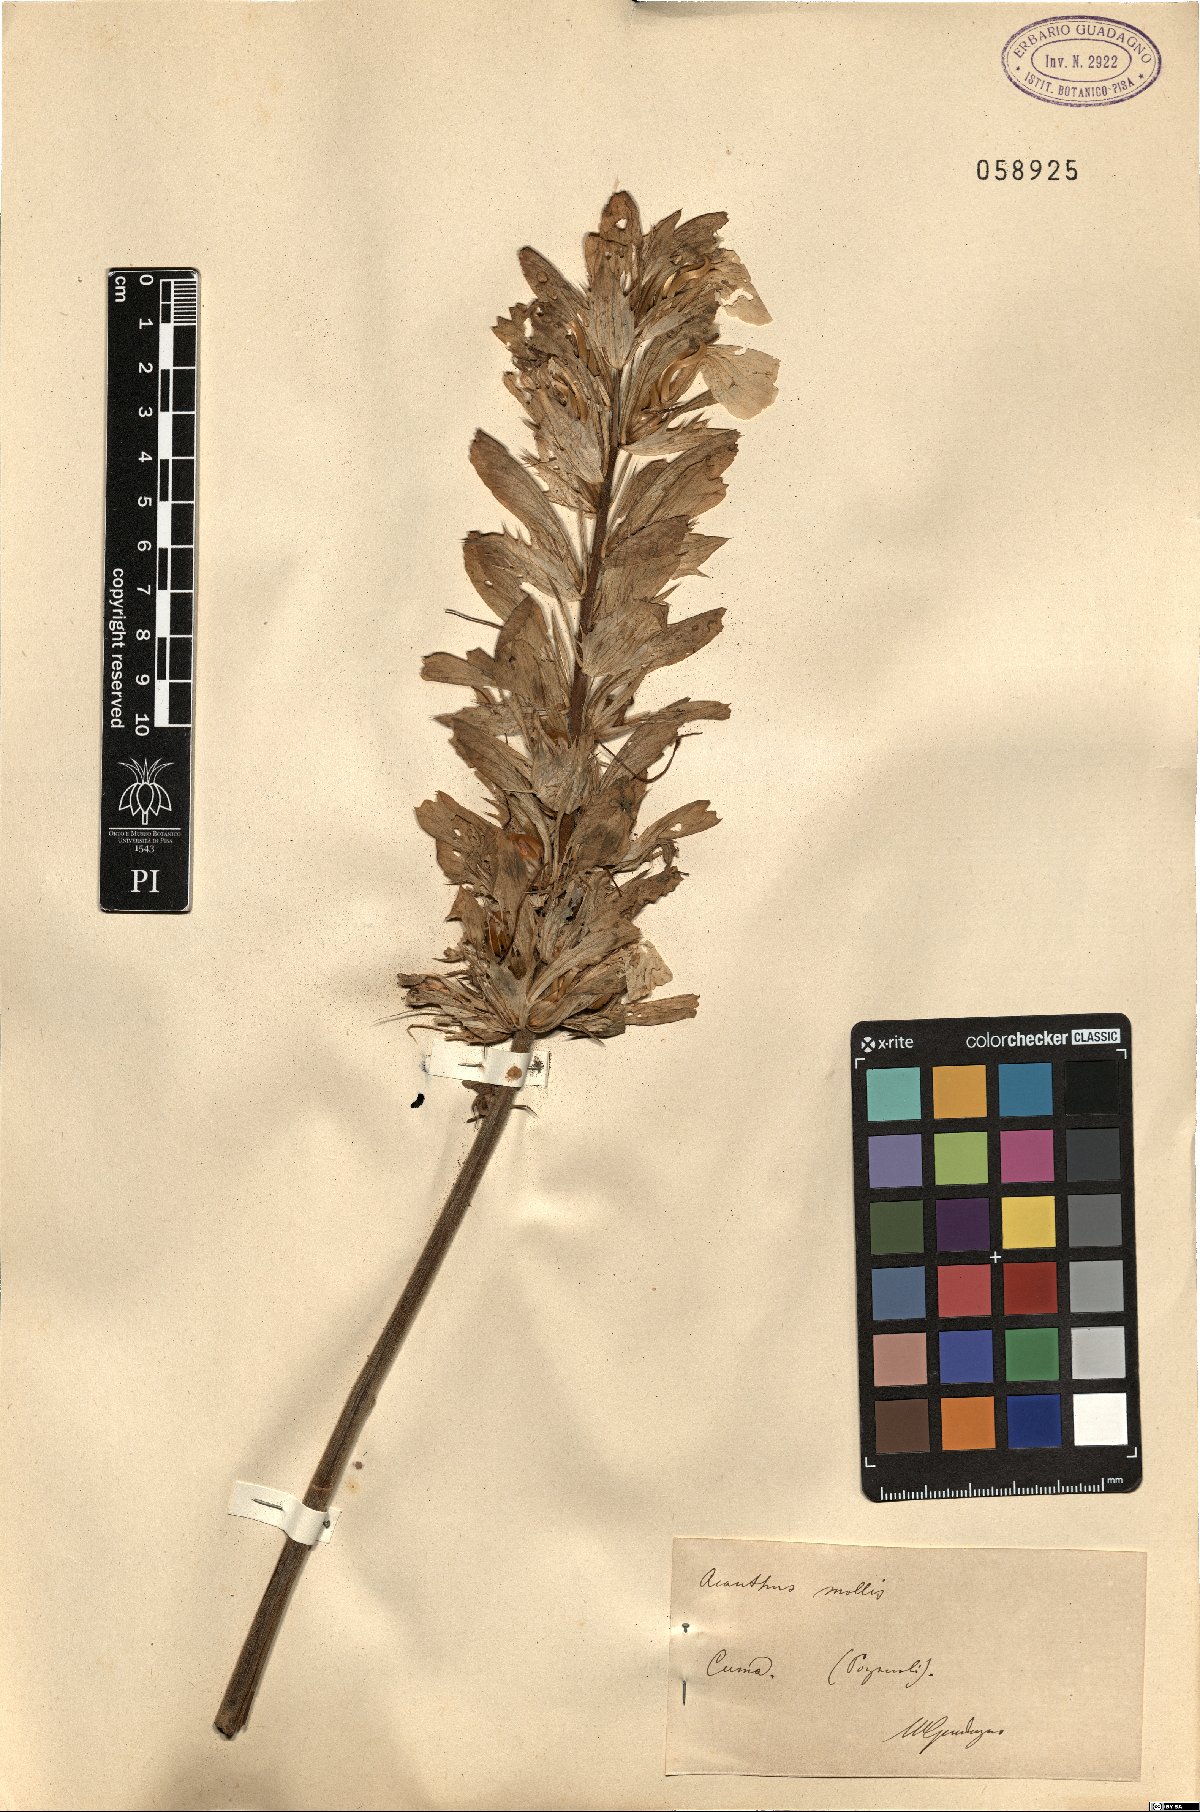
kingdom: Plantae
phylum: Tracheophyta
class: Magnoliopsida
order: Lamiales
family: Acanthaceae
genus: Acanthus
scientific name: Acanthus mollis
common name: Bear's-breech
